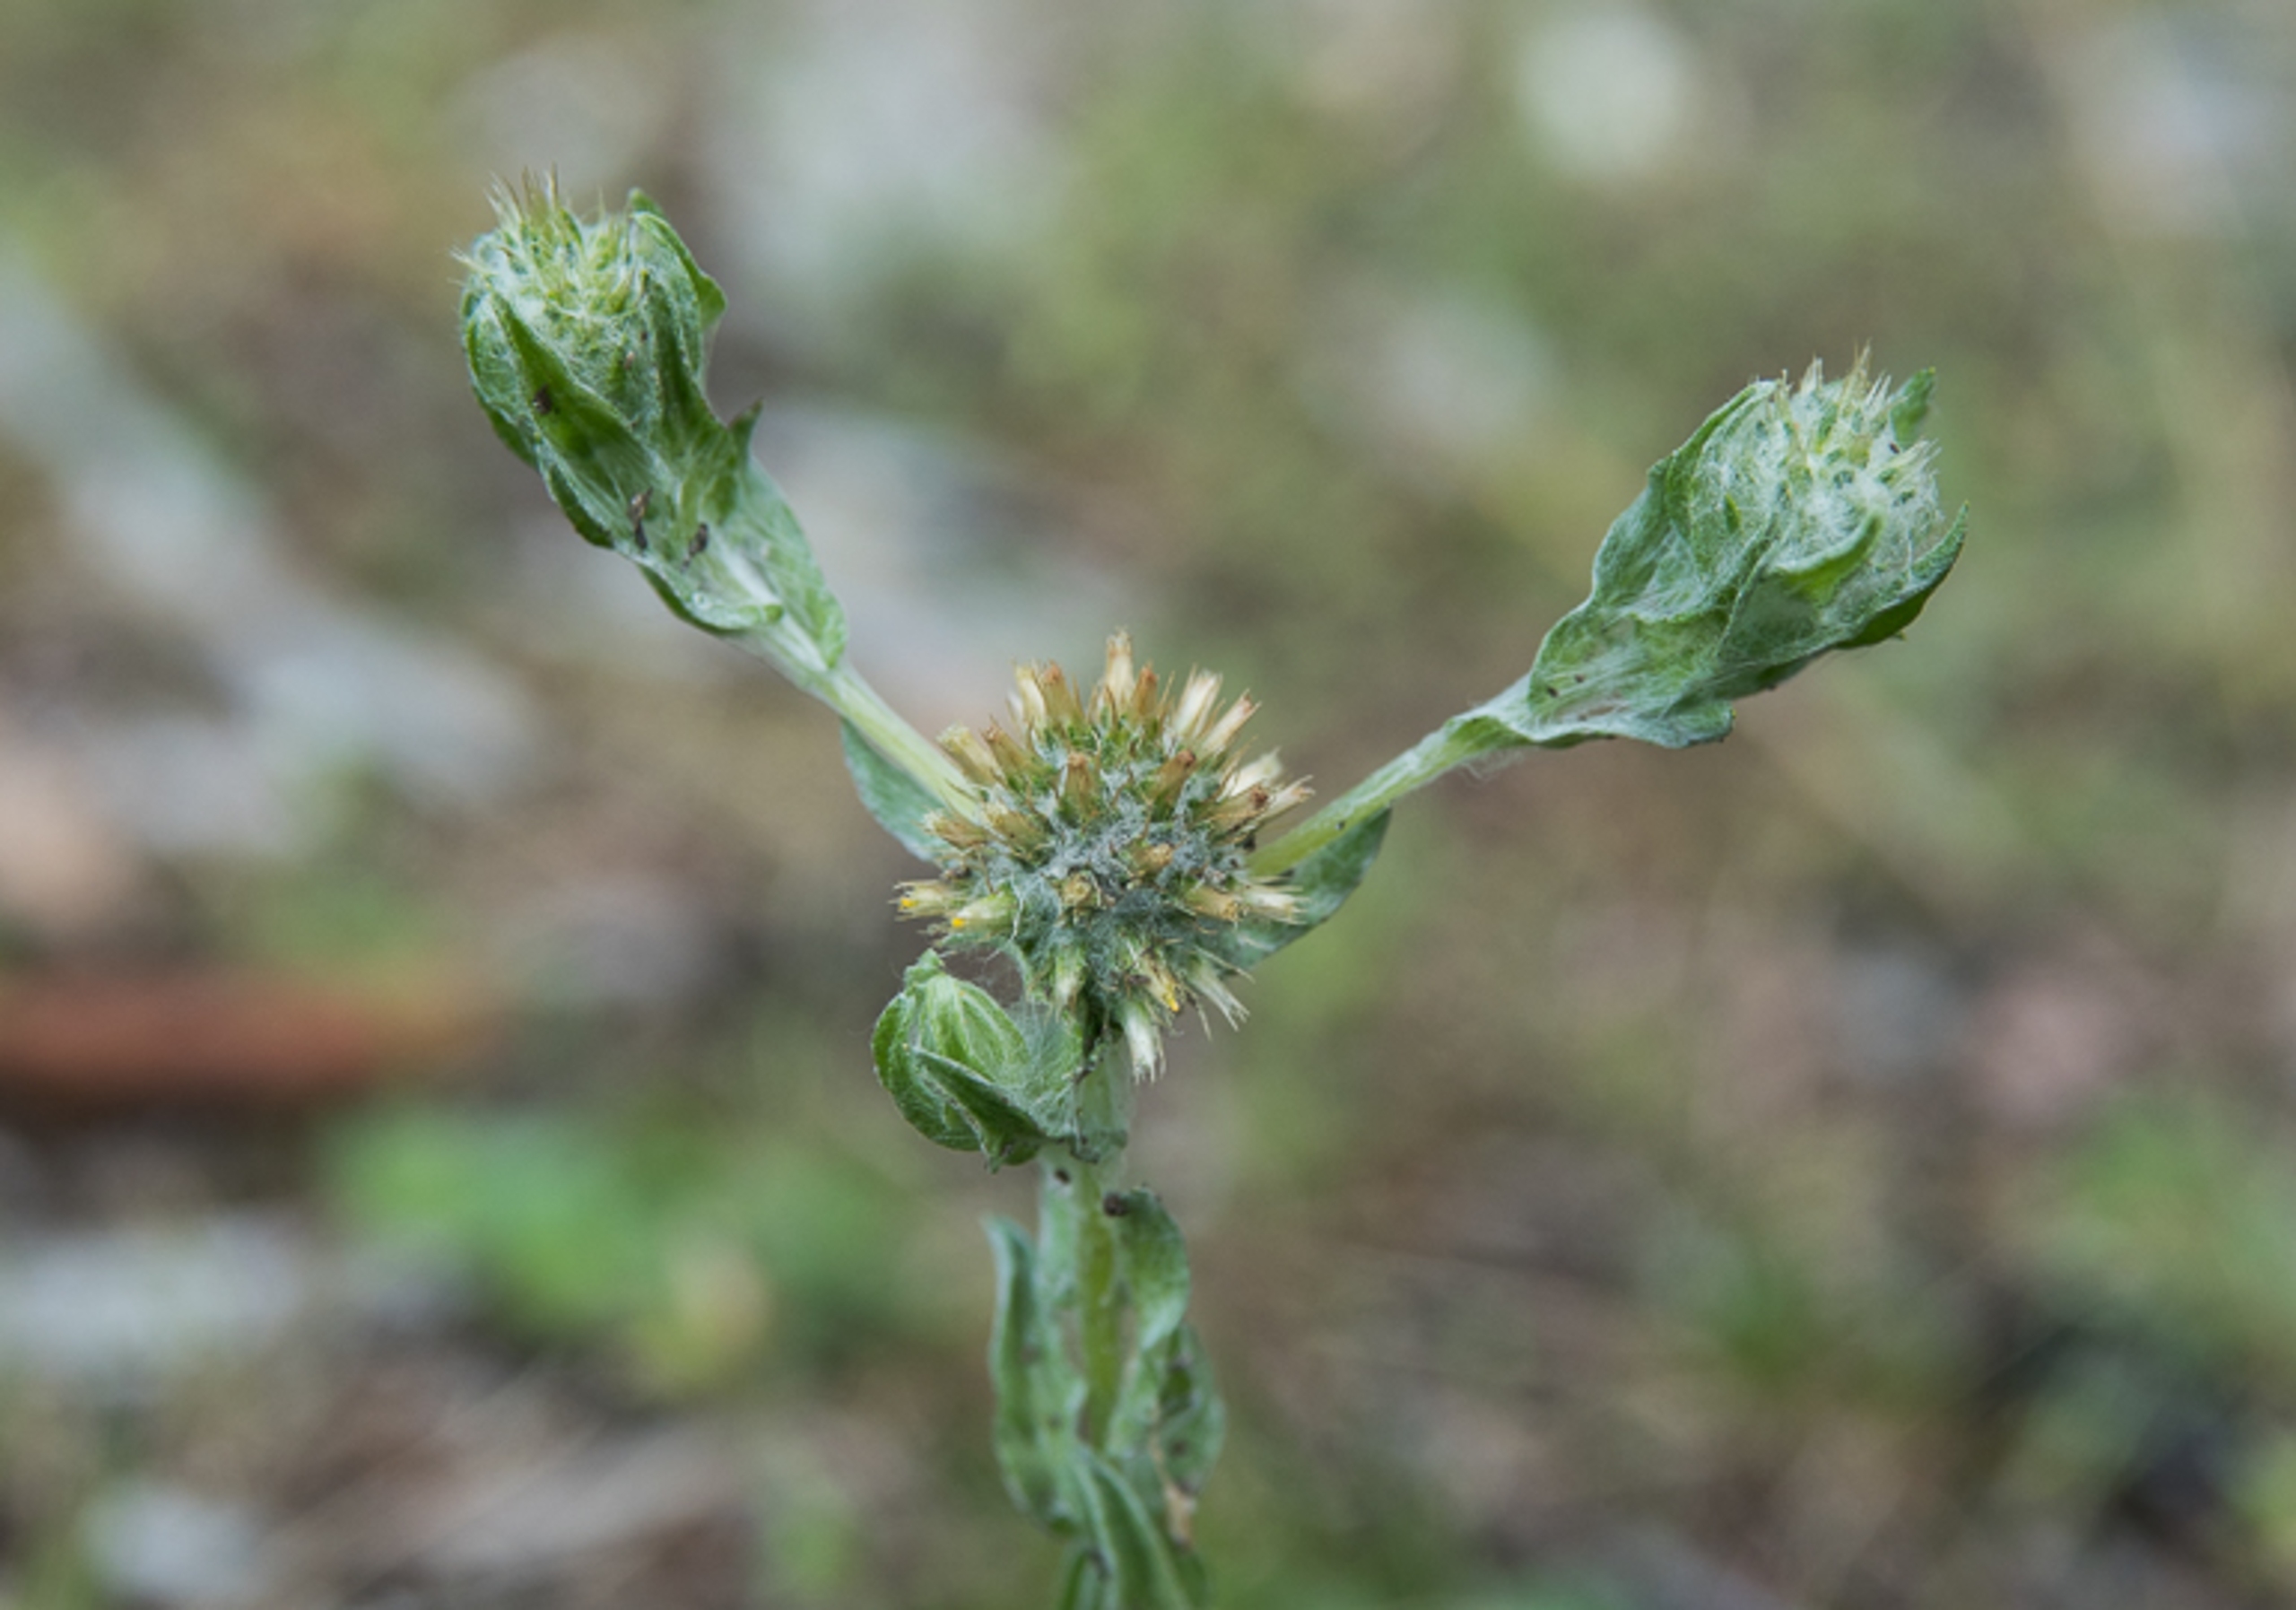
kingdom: Plantae
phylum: Tracheophyta
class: Magnoliopsida
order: Asterales
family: Asteraceae
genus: Filago
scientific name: Filago germanica
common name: Kugle-museurt
